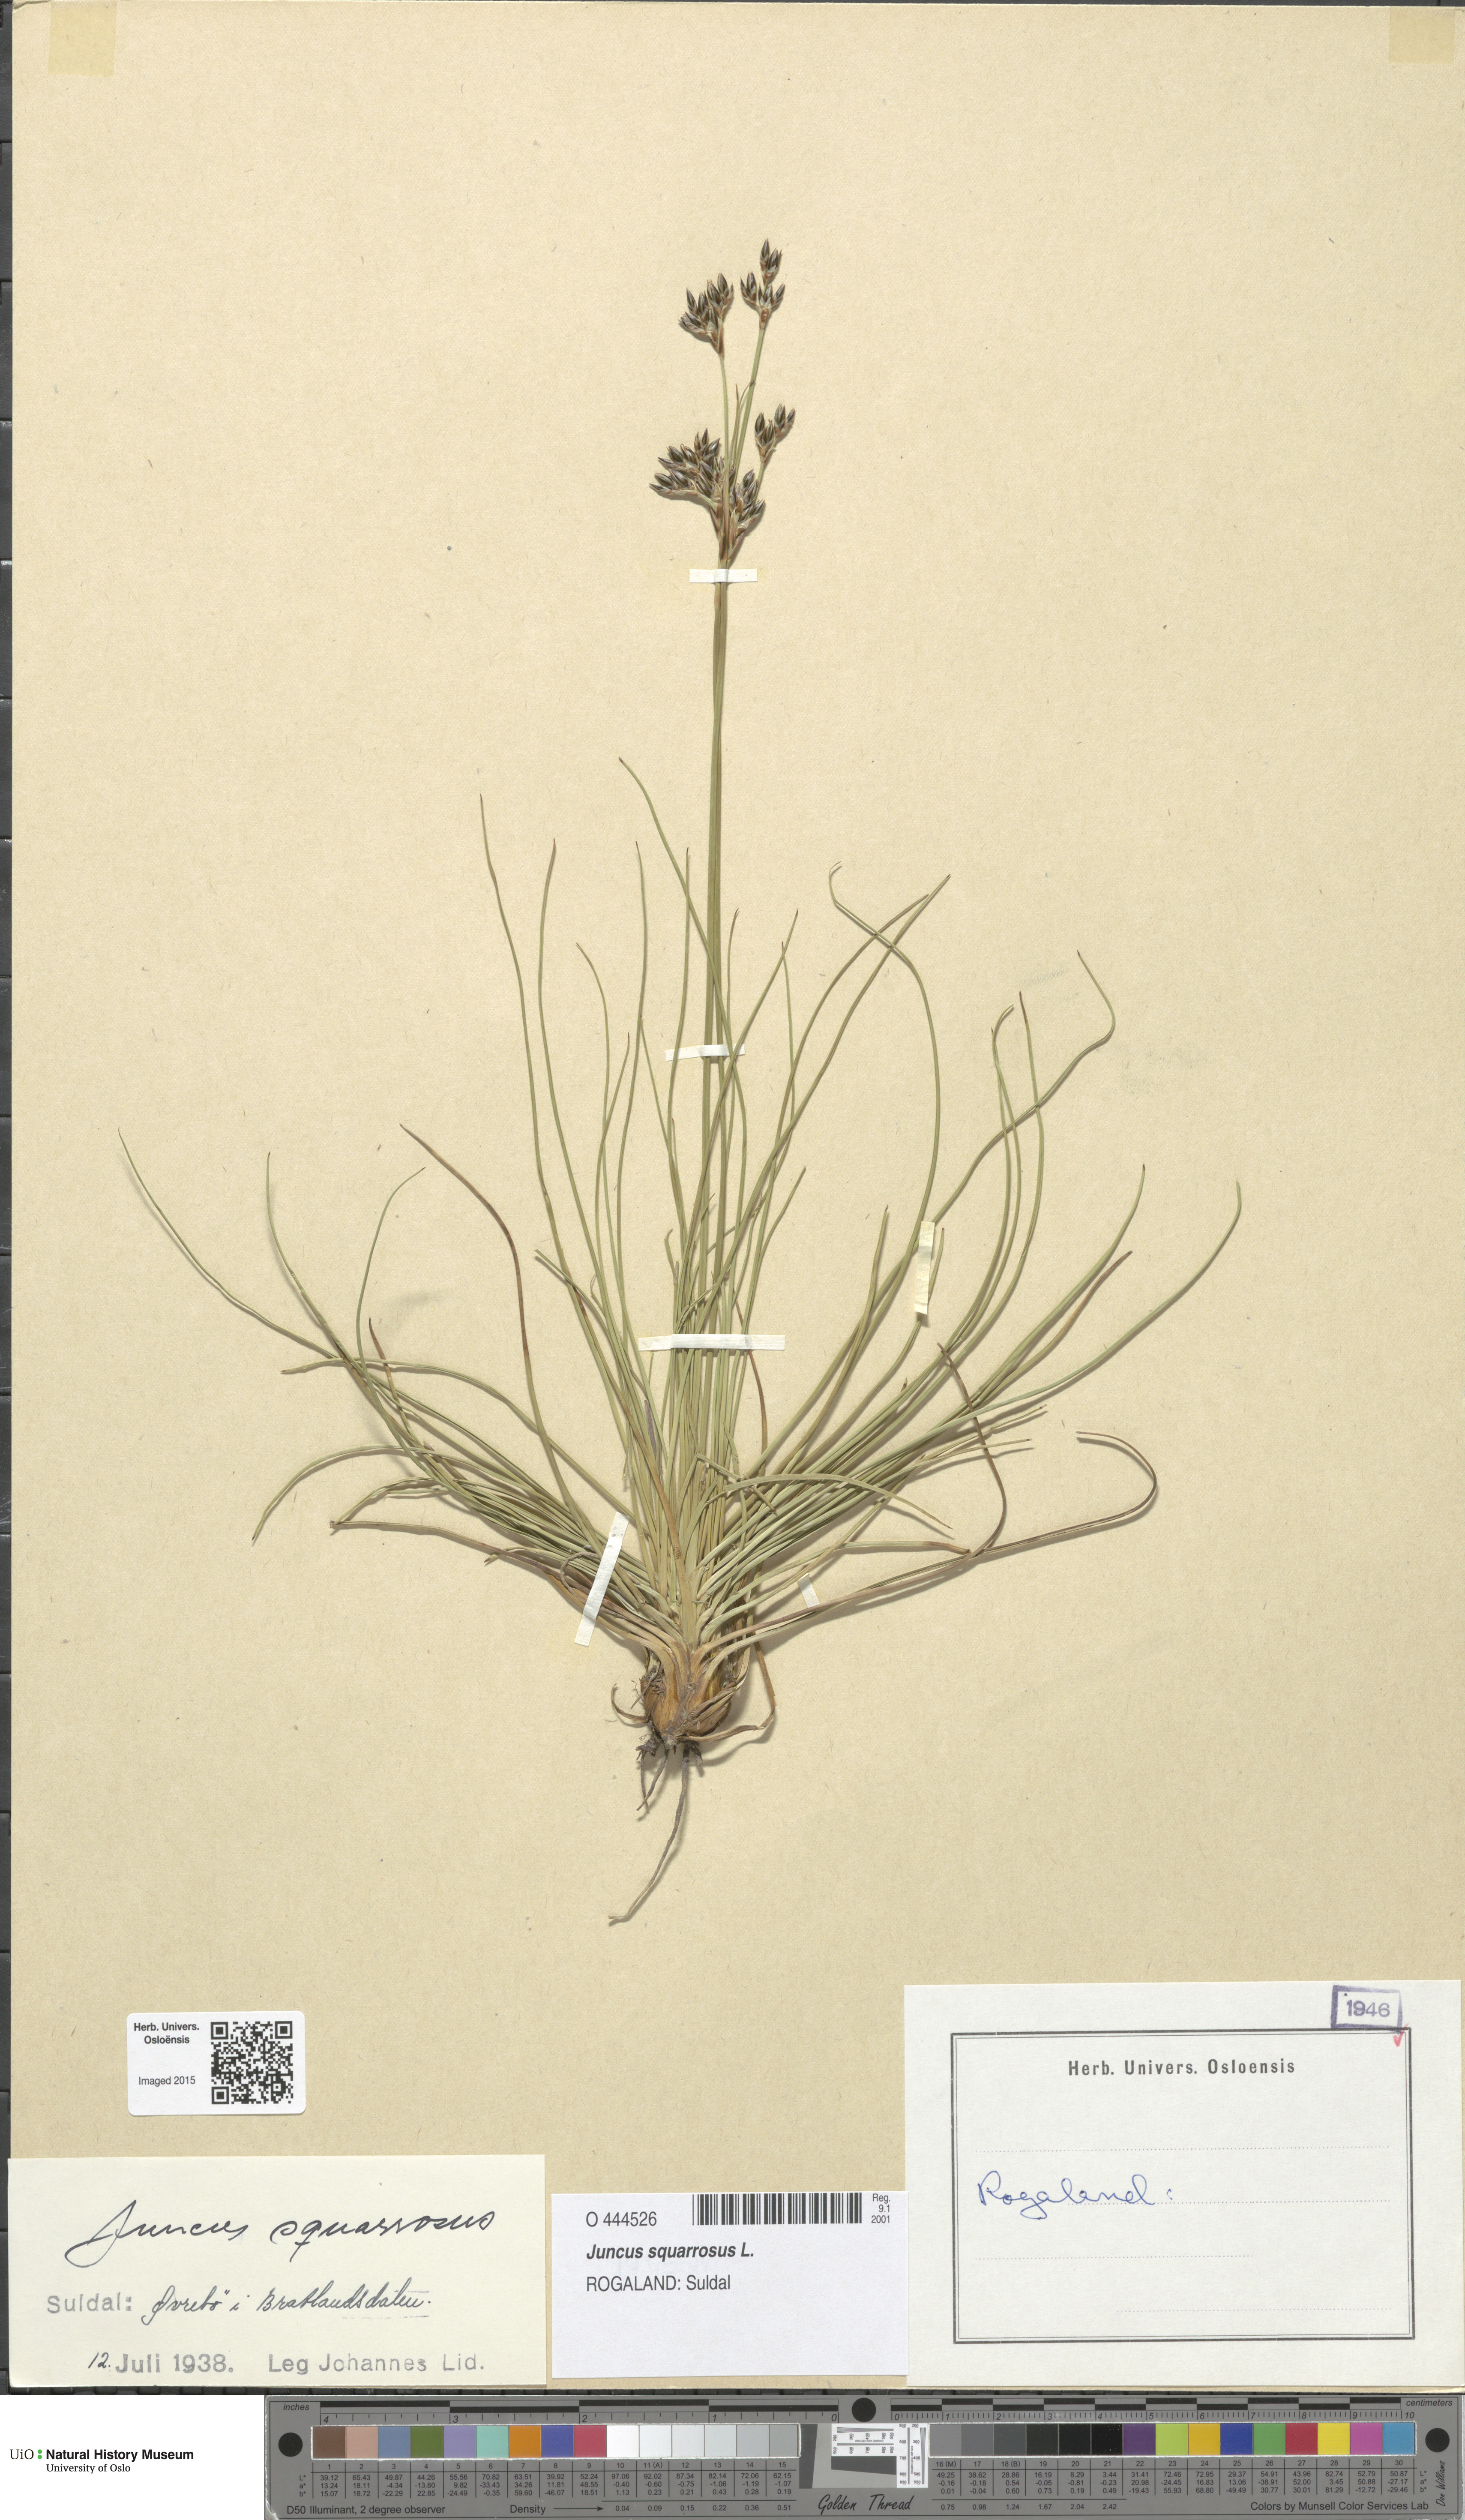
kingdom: Plantae
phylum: Tracheophyta
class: Liliopsida
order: Poales
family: Juncaceae
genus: Juncus
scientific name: Juncus squarrosus
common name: Heath rush
